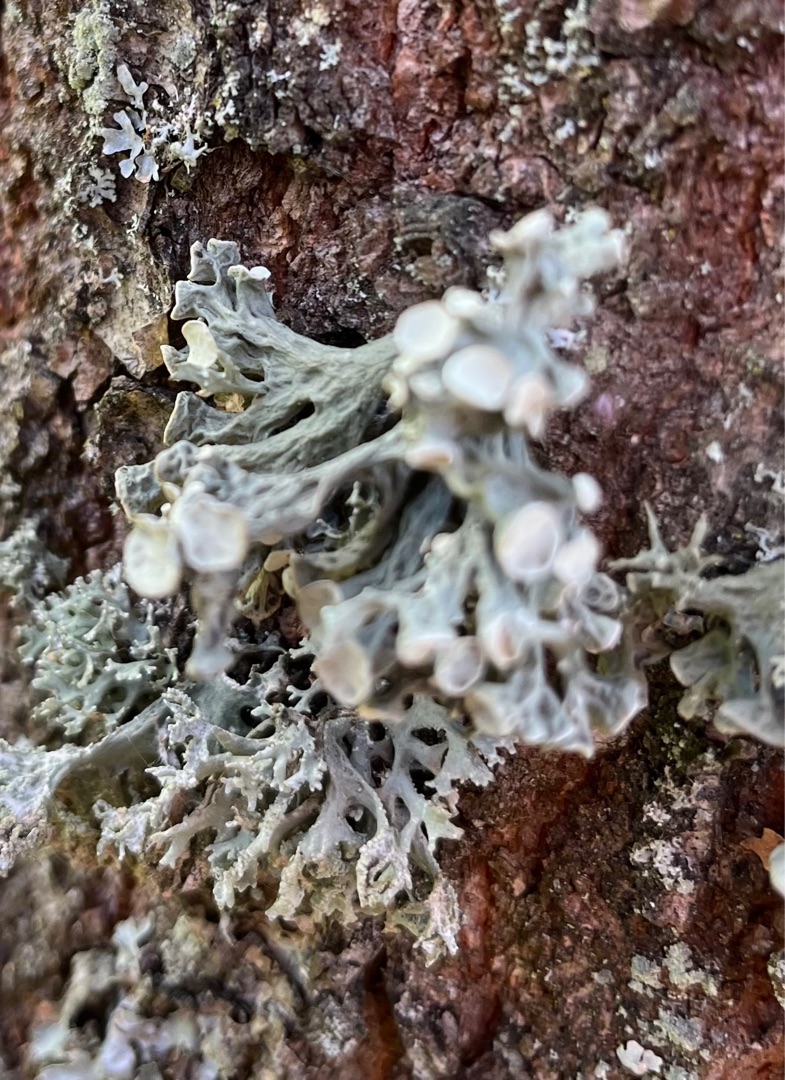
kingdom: Fungi
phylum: Ascomycota
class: Lecanoromycetes
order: Lecanorales
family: Ramalinaceae
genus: Ramalina
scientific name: Ramalina fastigiata
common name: Tue-grenlav
